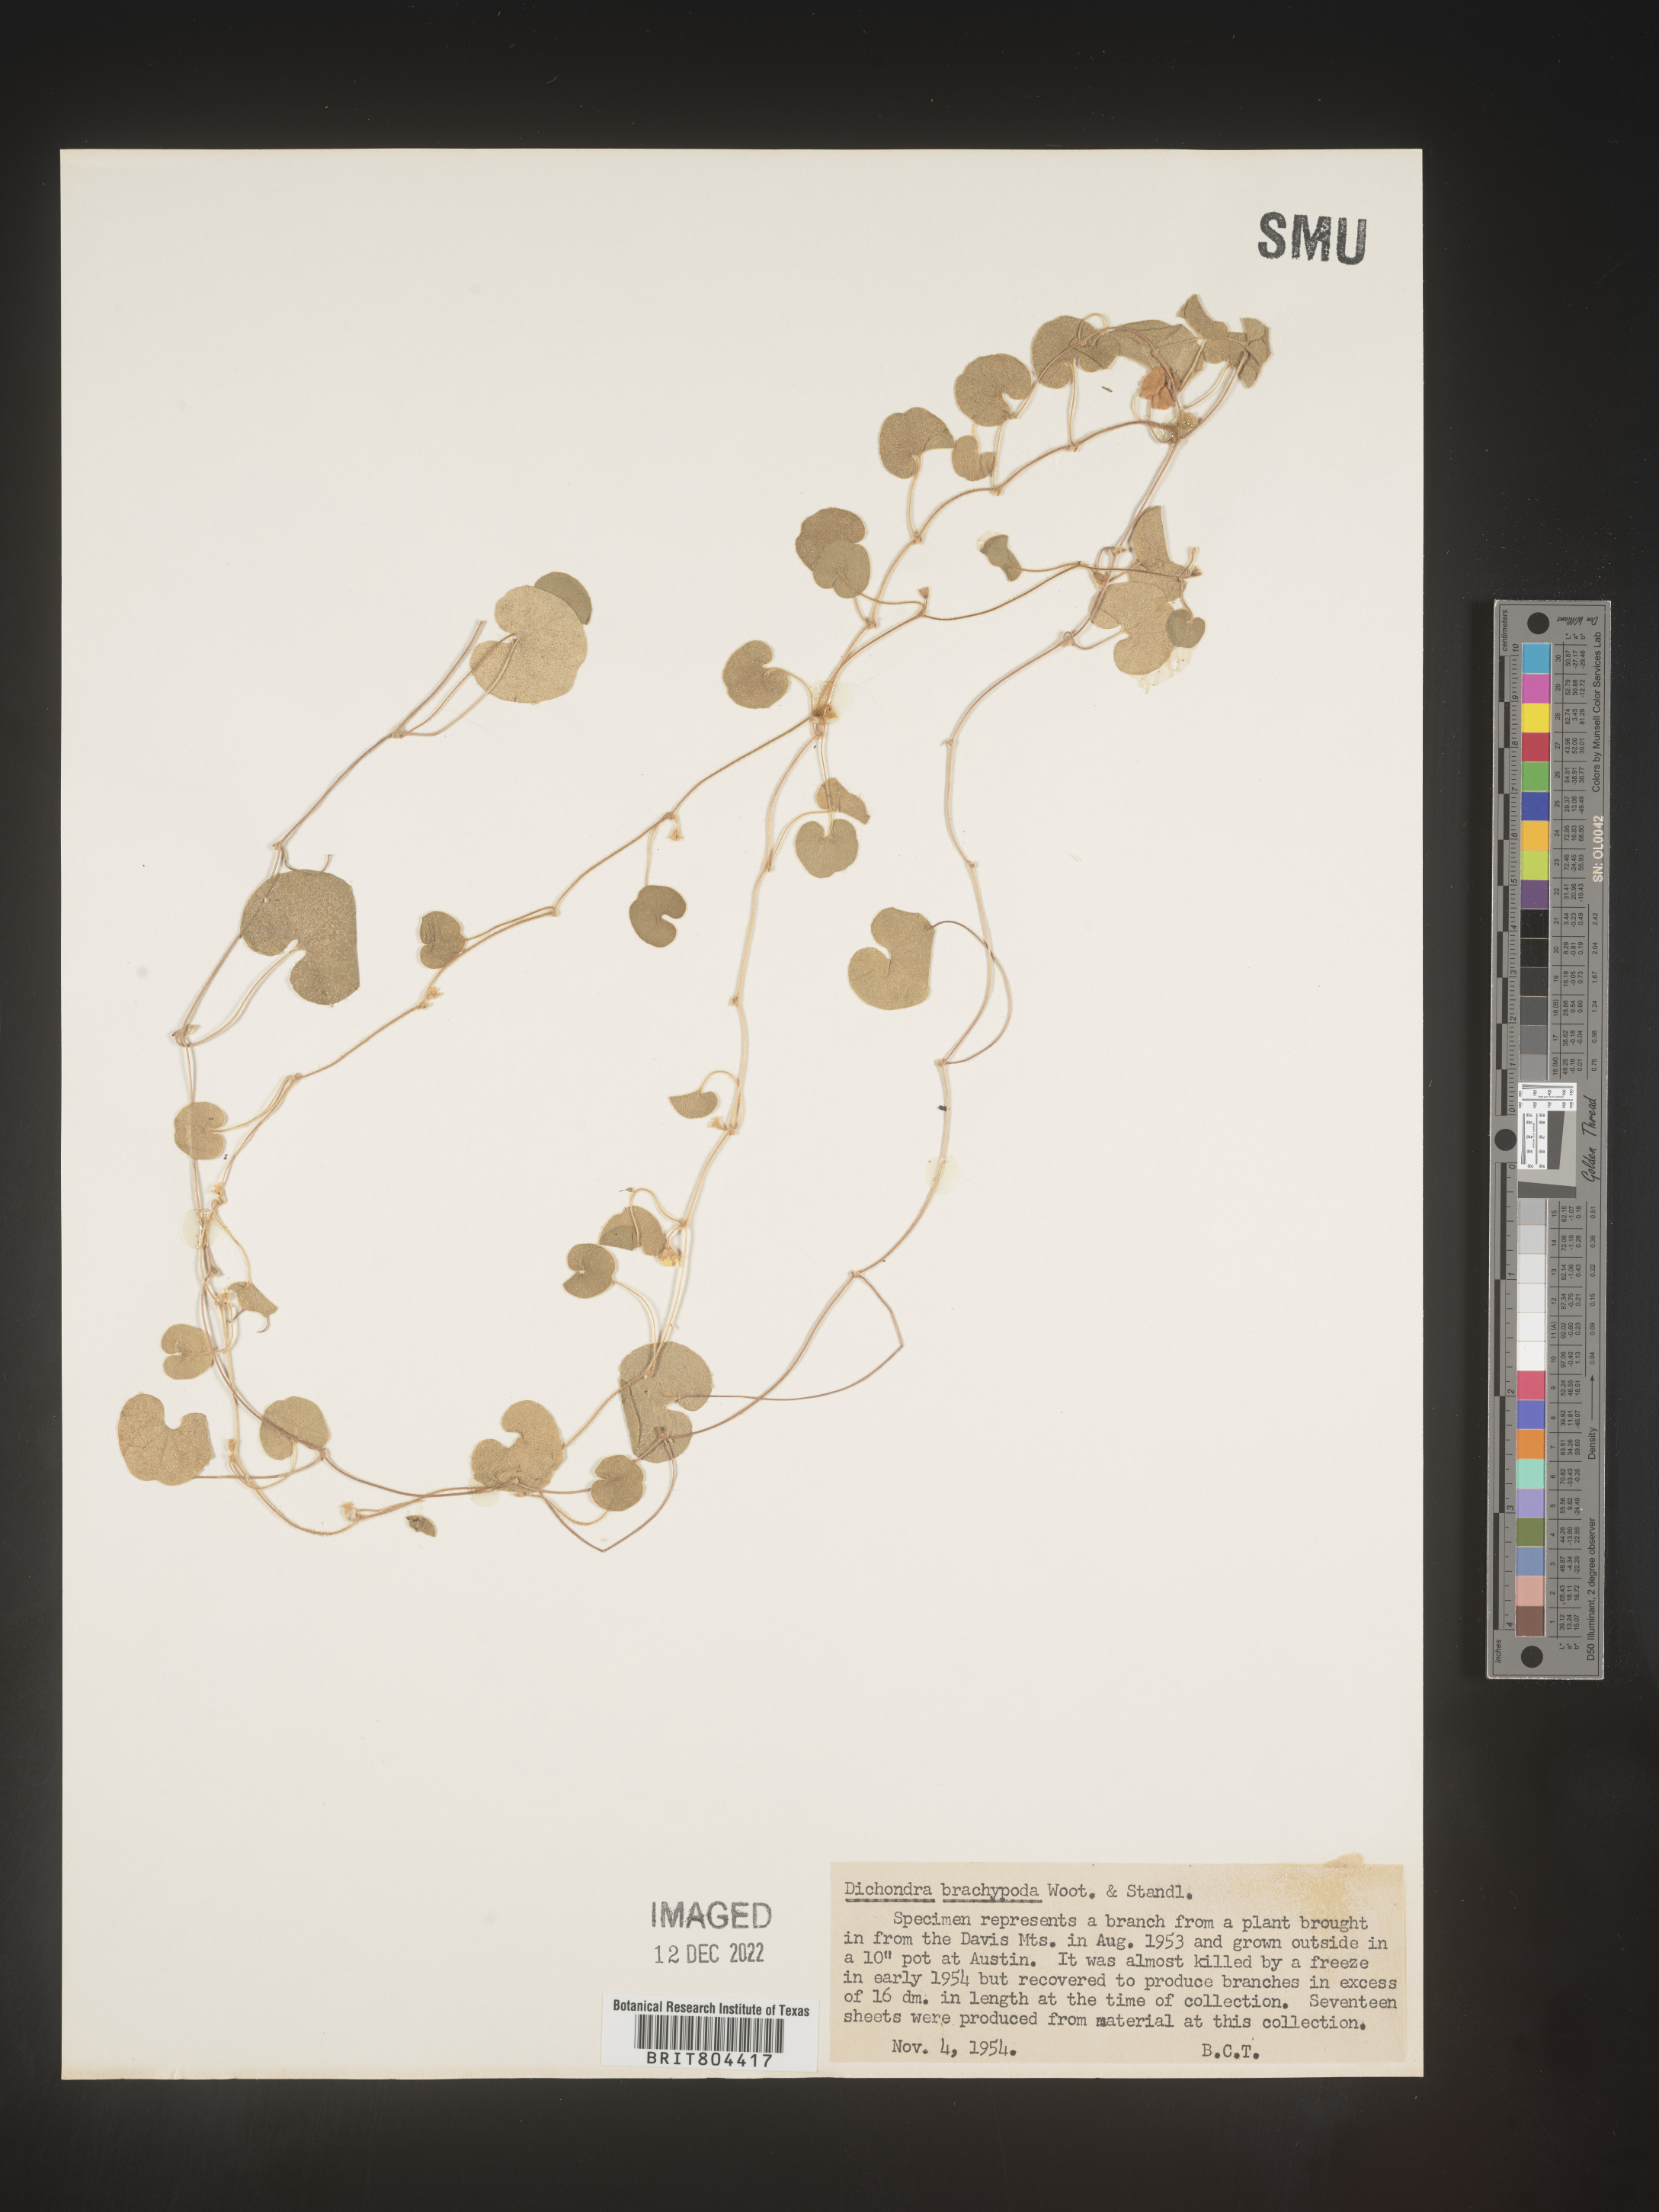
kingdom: Plantae
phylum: Tracheophyta
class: Magnoliopsida
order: Solanales
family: Convolvulaceae
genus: Dichondra
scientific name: Dichondra
